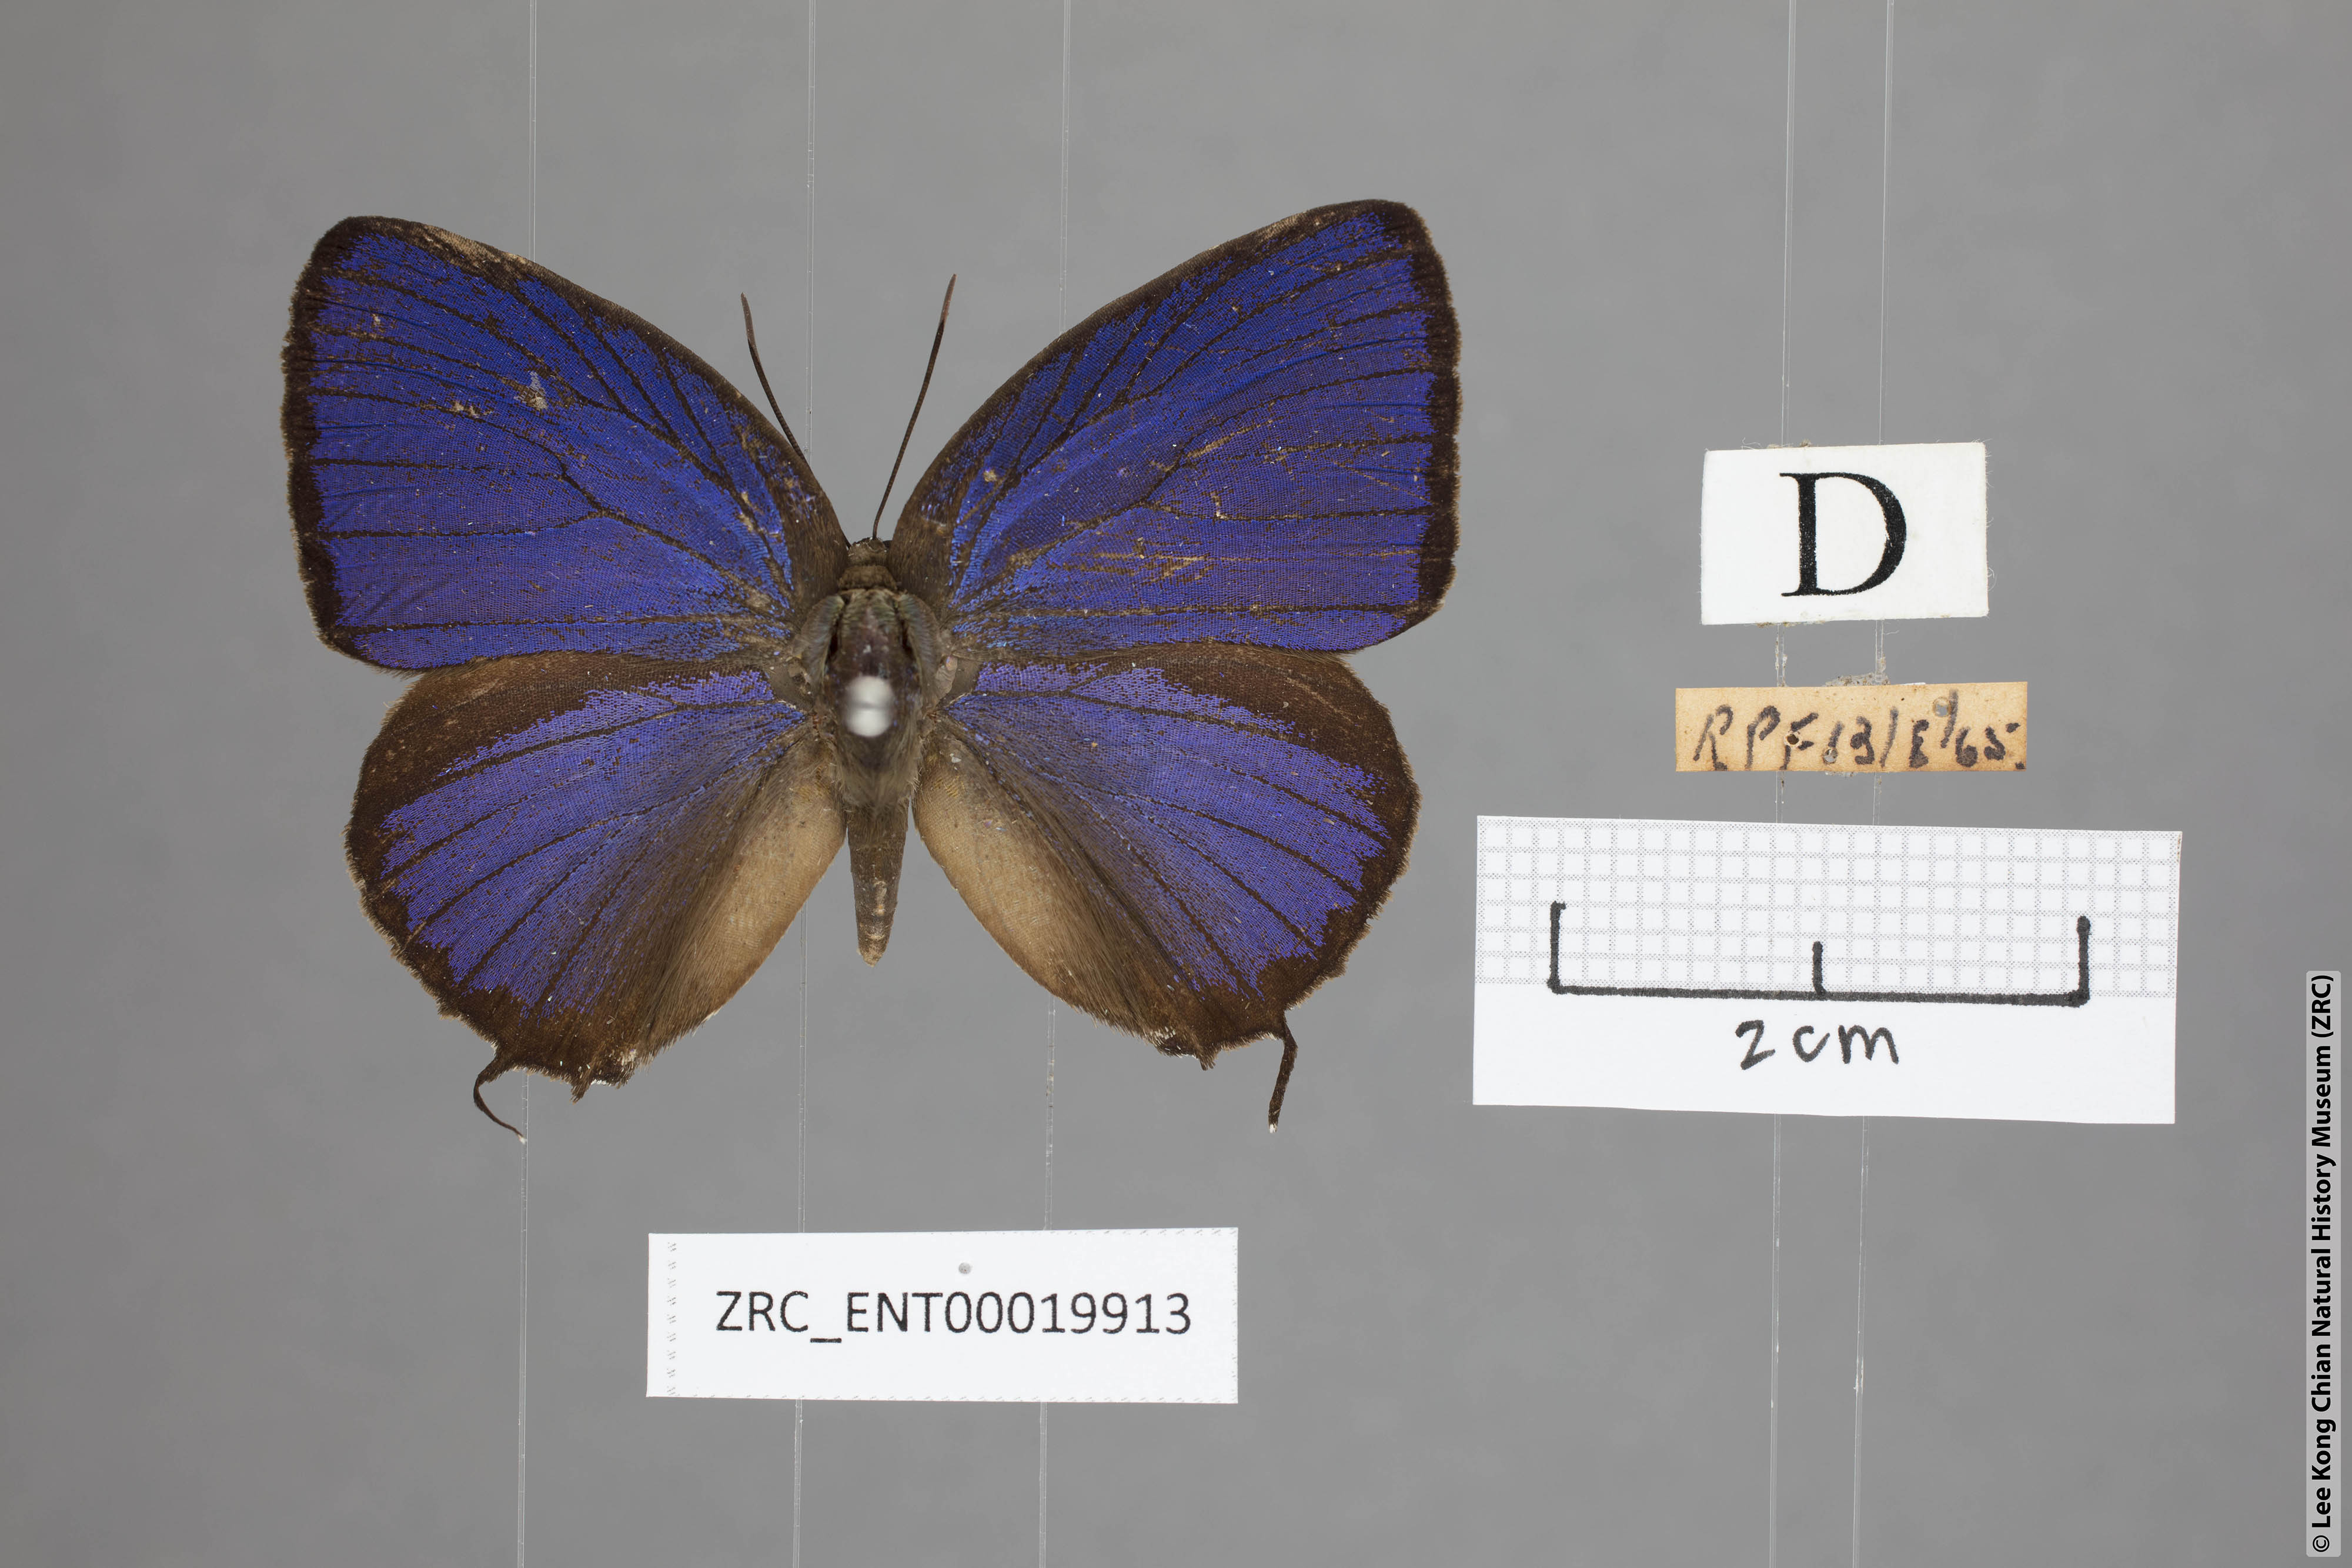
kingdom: Animalia
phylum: Arthropoda
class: Insecta
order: Lepidoptera
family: Lycaenidae
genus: Arhopala
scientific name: Arhopala vihara
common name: Large spotted oakblue
